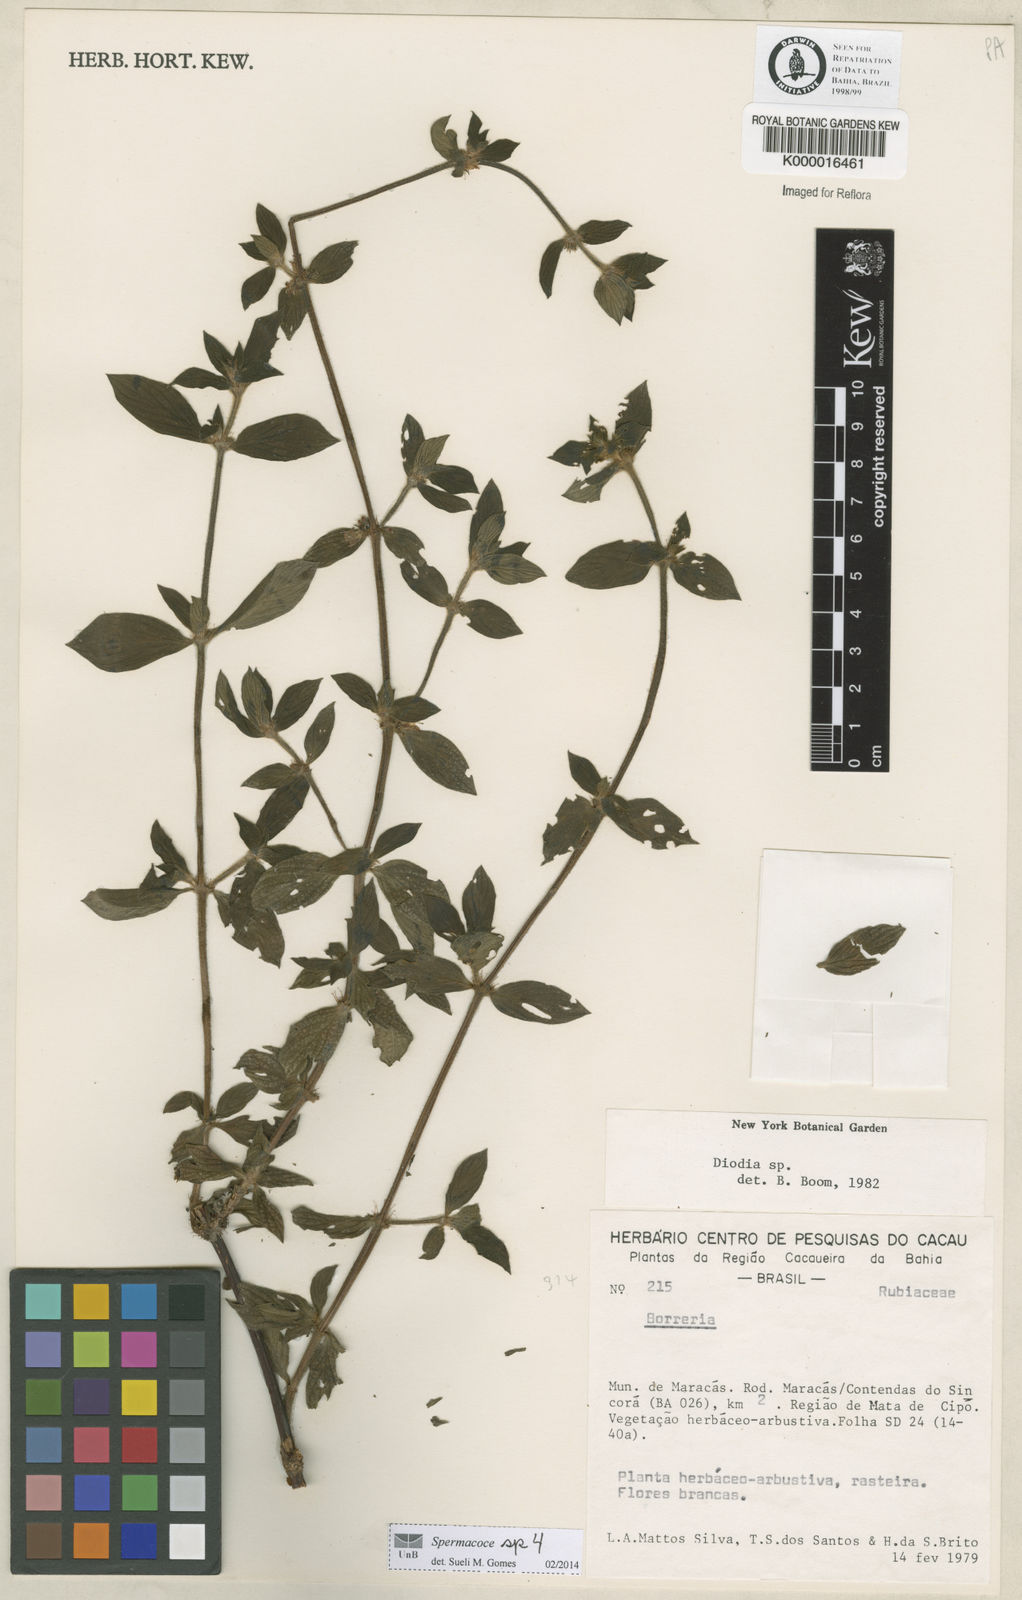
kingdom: Plantae
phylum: Tracheophyta
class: Magnoliopsida
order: Gentianales
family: Rubiaceae
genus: Diodia
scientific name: Diodia
